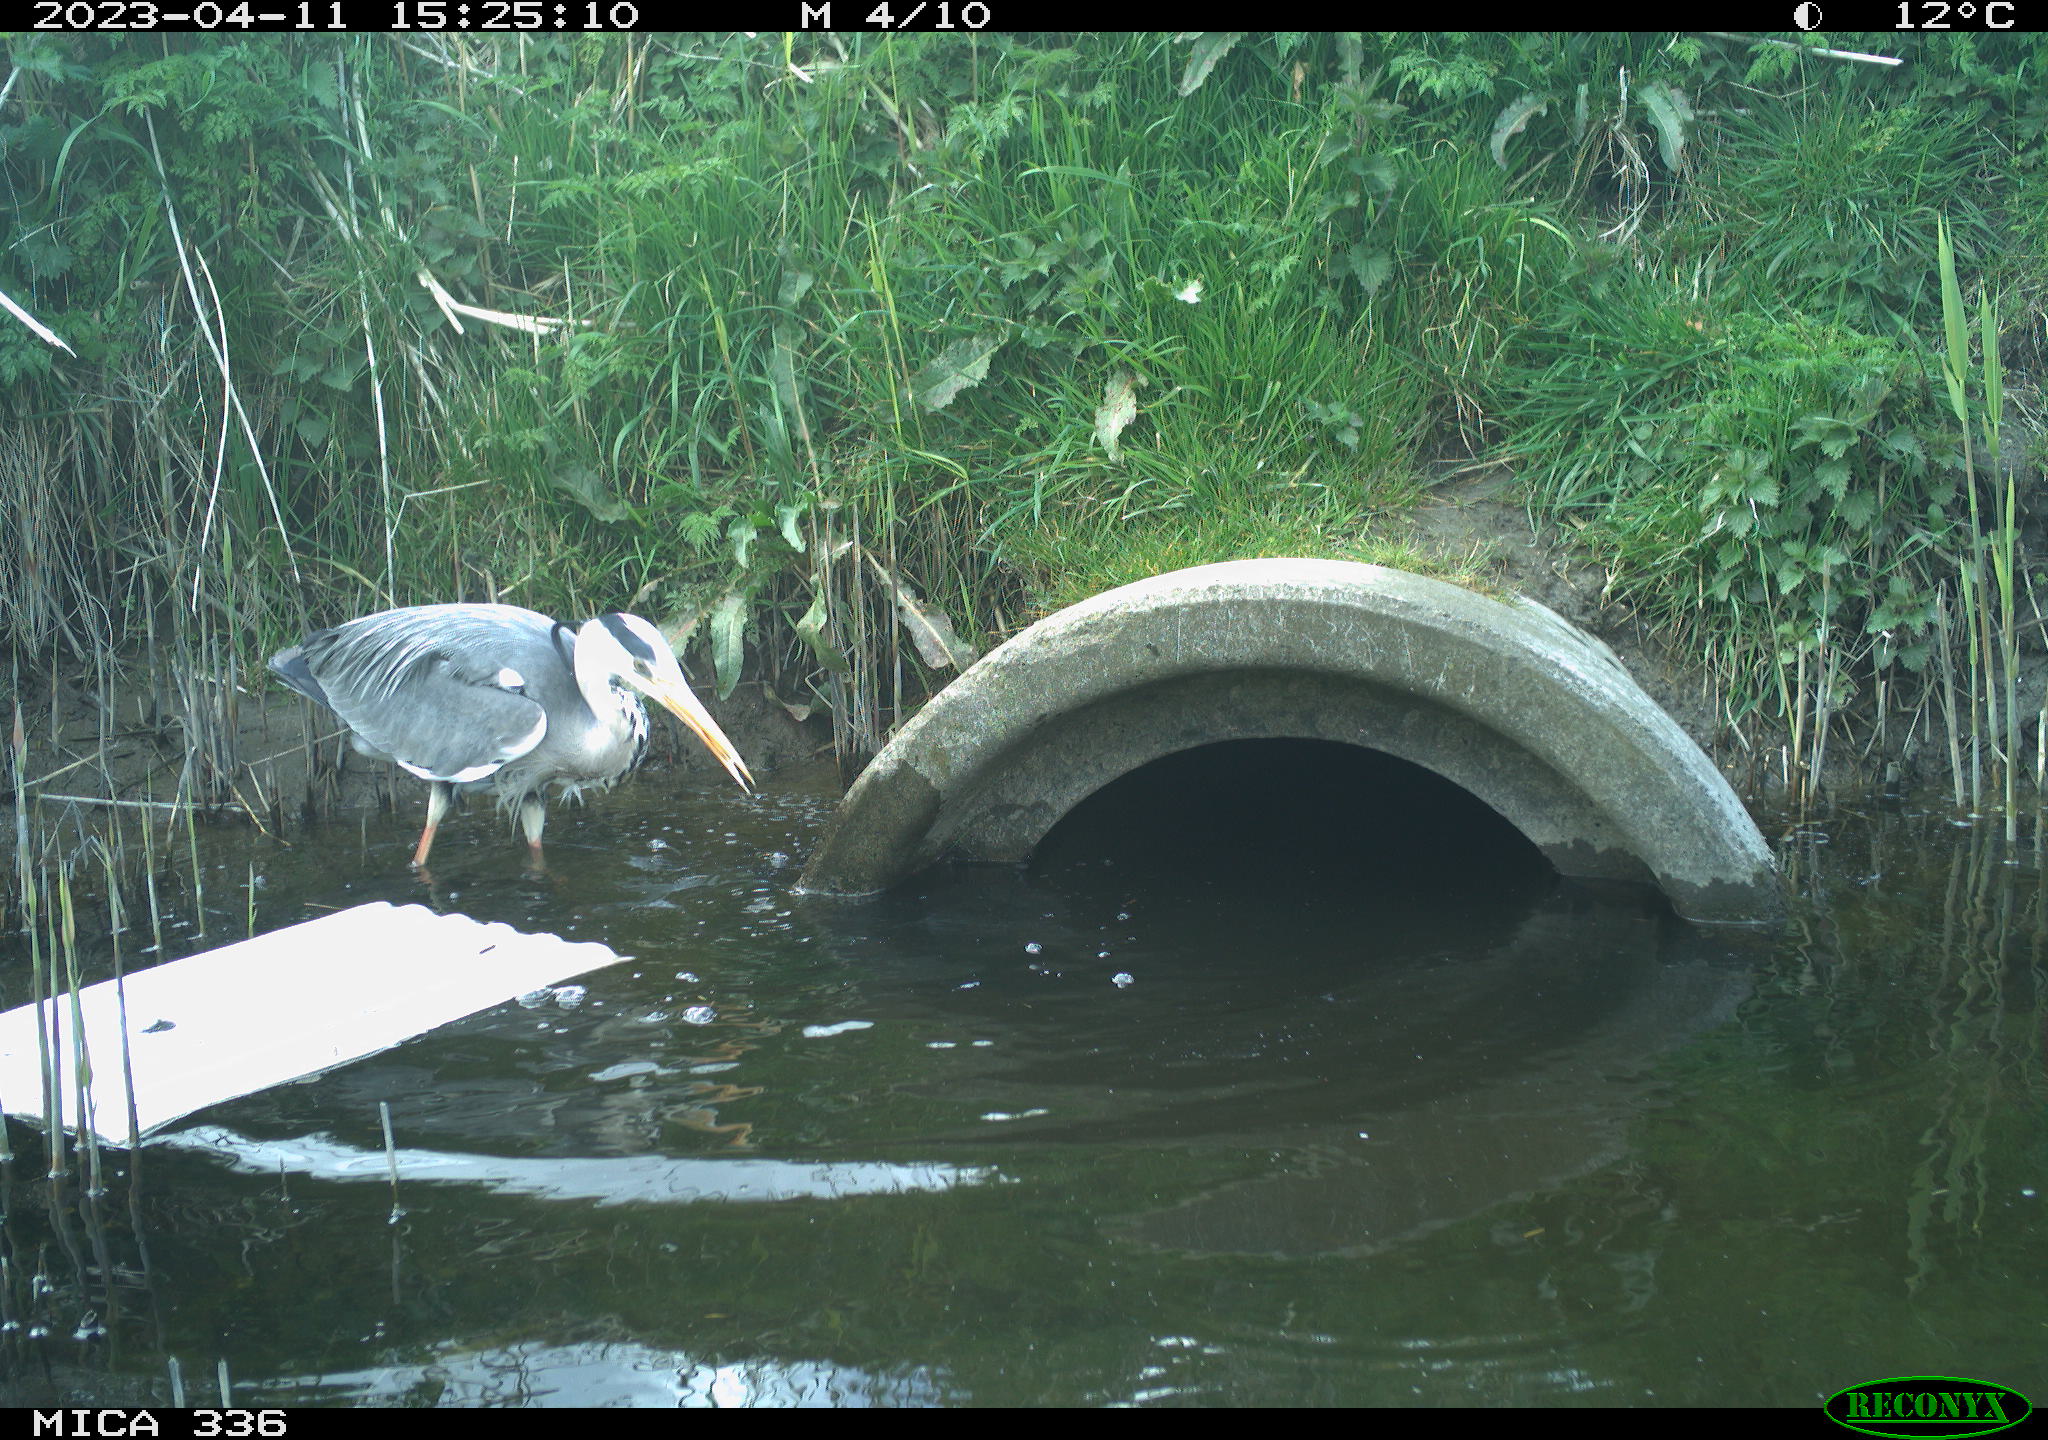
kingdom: Animalia
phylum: Chordata
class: Aves
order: Pelecaniformes
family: Ardeidae
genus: Ardea
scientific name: Ardea
